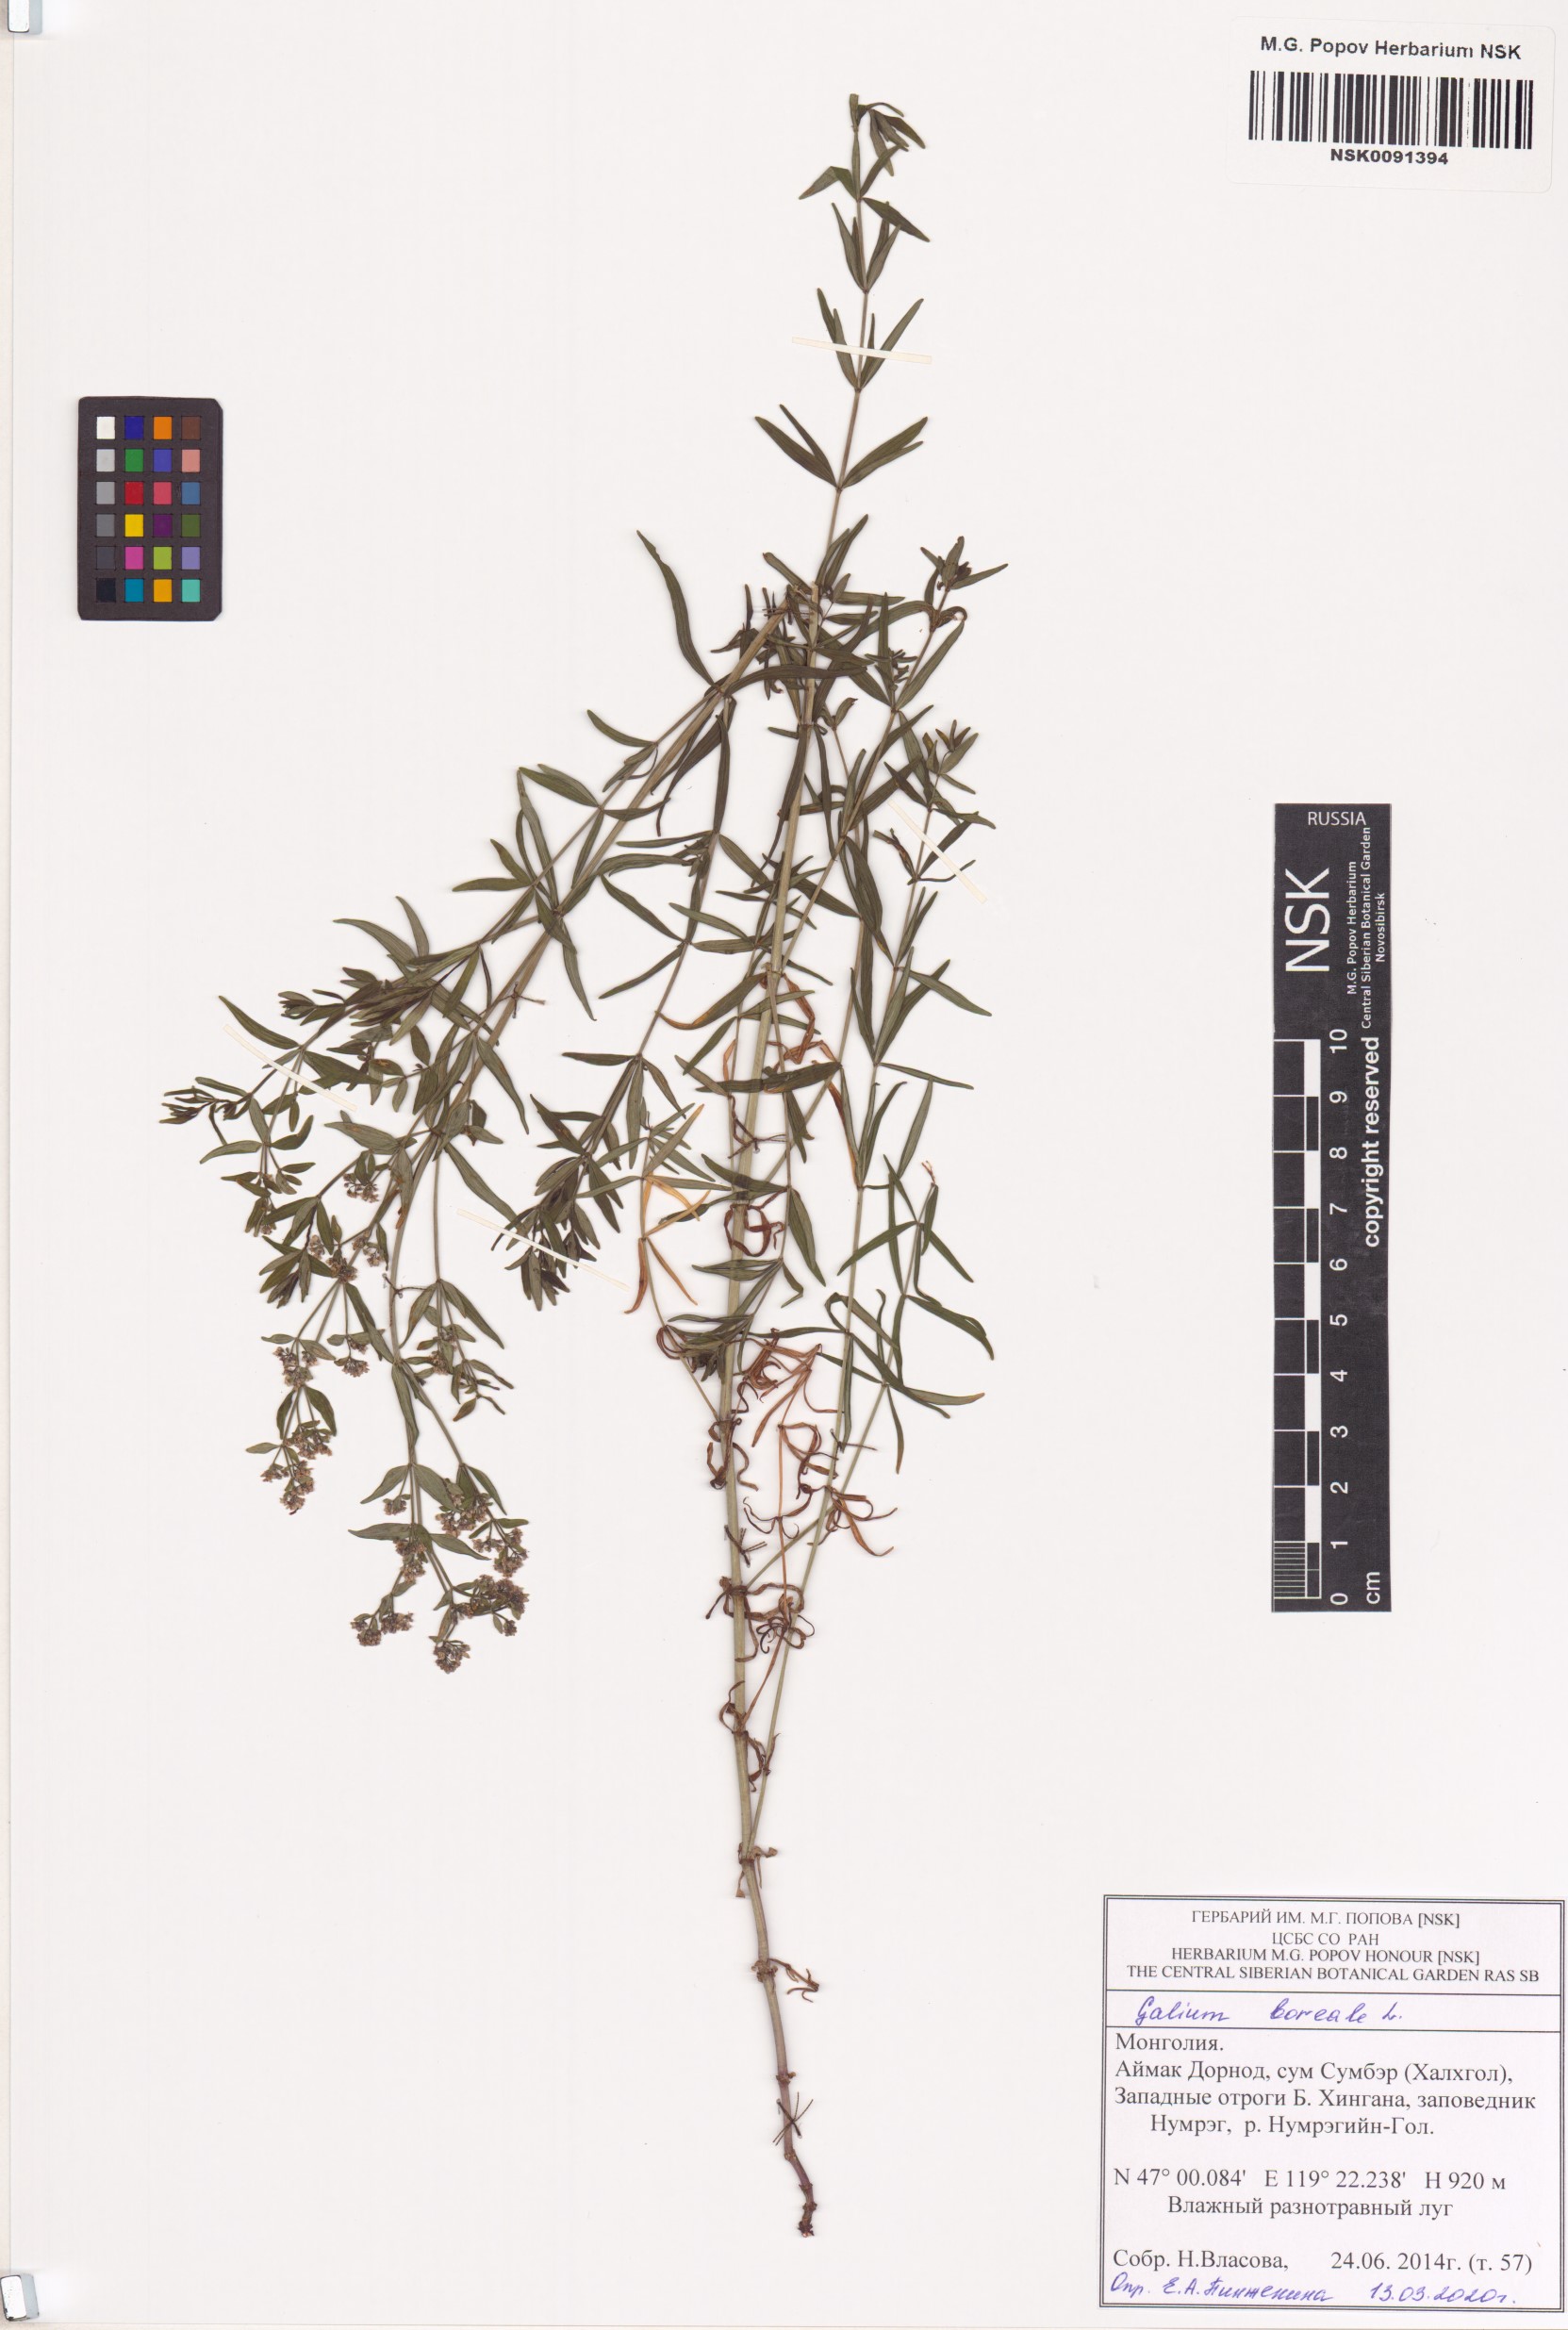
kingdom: Plantae
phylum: Tracheophyta
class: Magnoliopsida
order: Gentianales
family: Rubiaceae
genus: Galium
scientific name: Galium boreale
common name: Northern bedstraw
